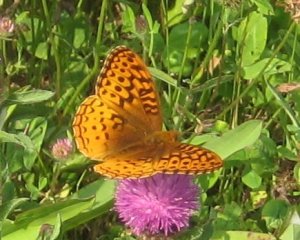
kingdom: Animalia
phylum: Arthropoda
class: Insecta
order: Lepidoptera
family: Nymphalidae
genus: Speyeria
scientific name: Speyeria cybele
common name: Great Spangled Fritillary
